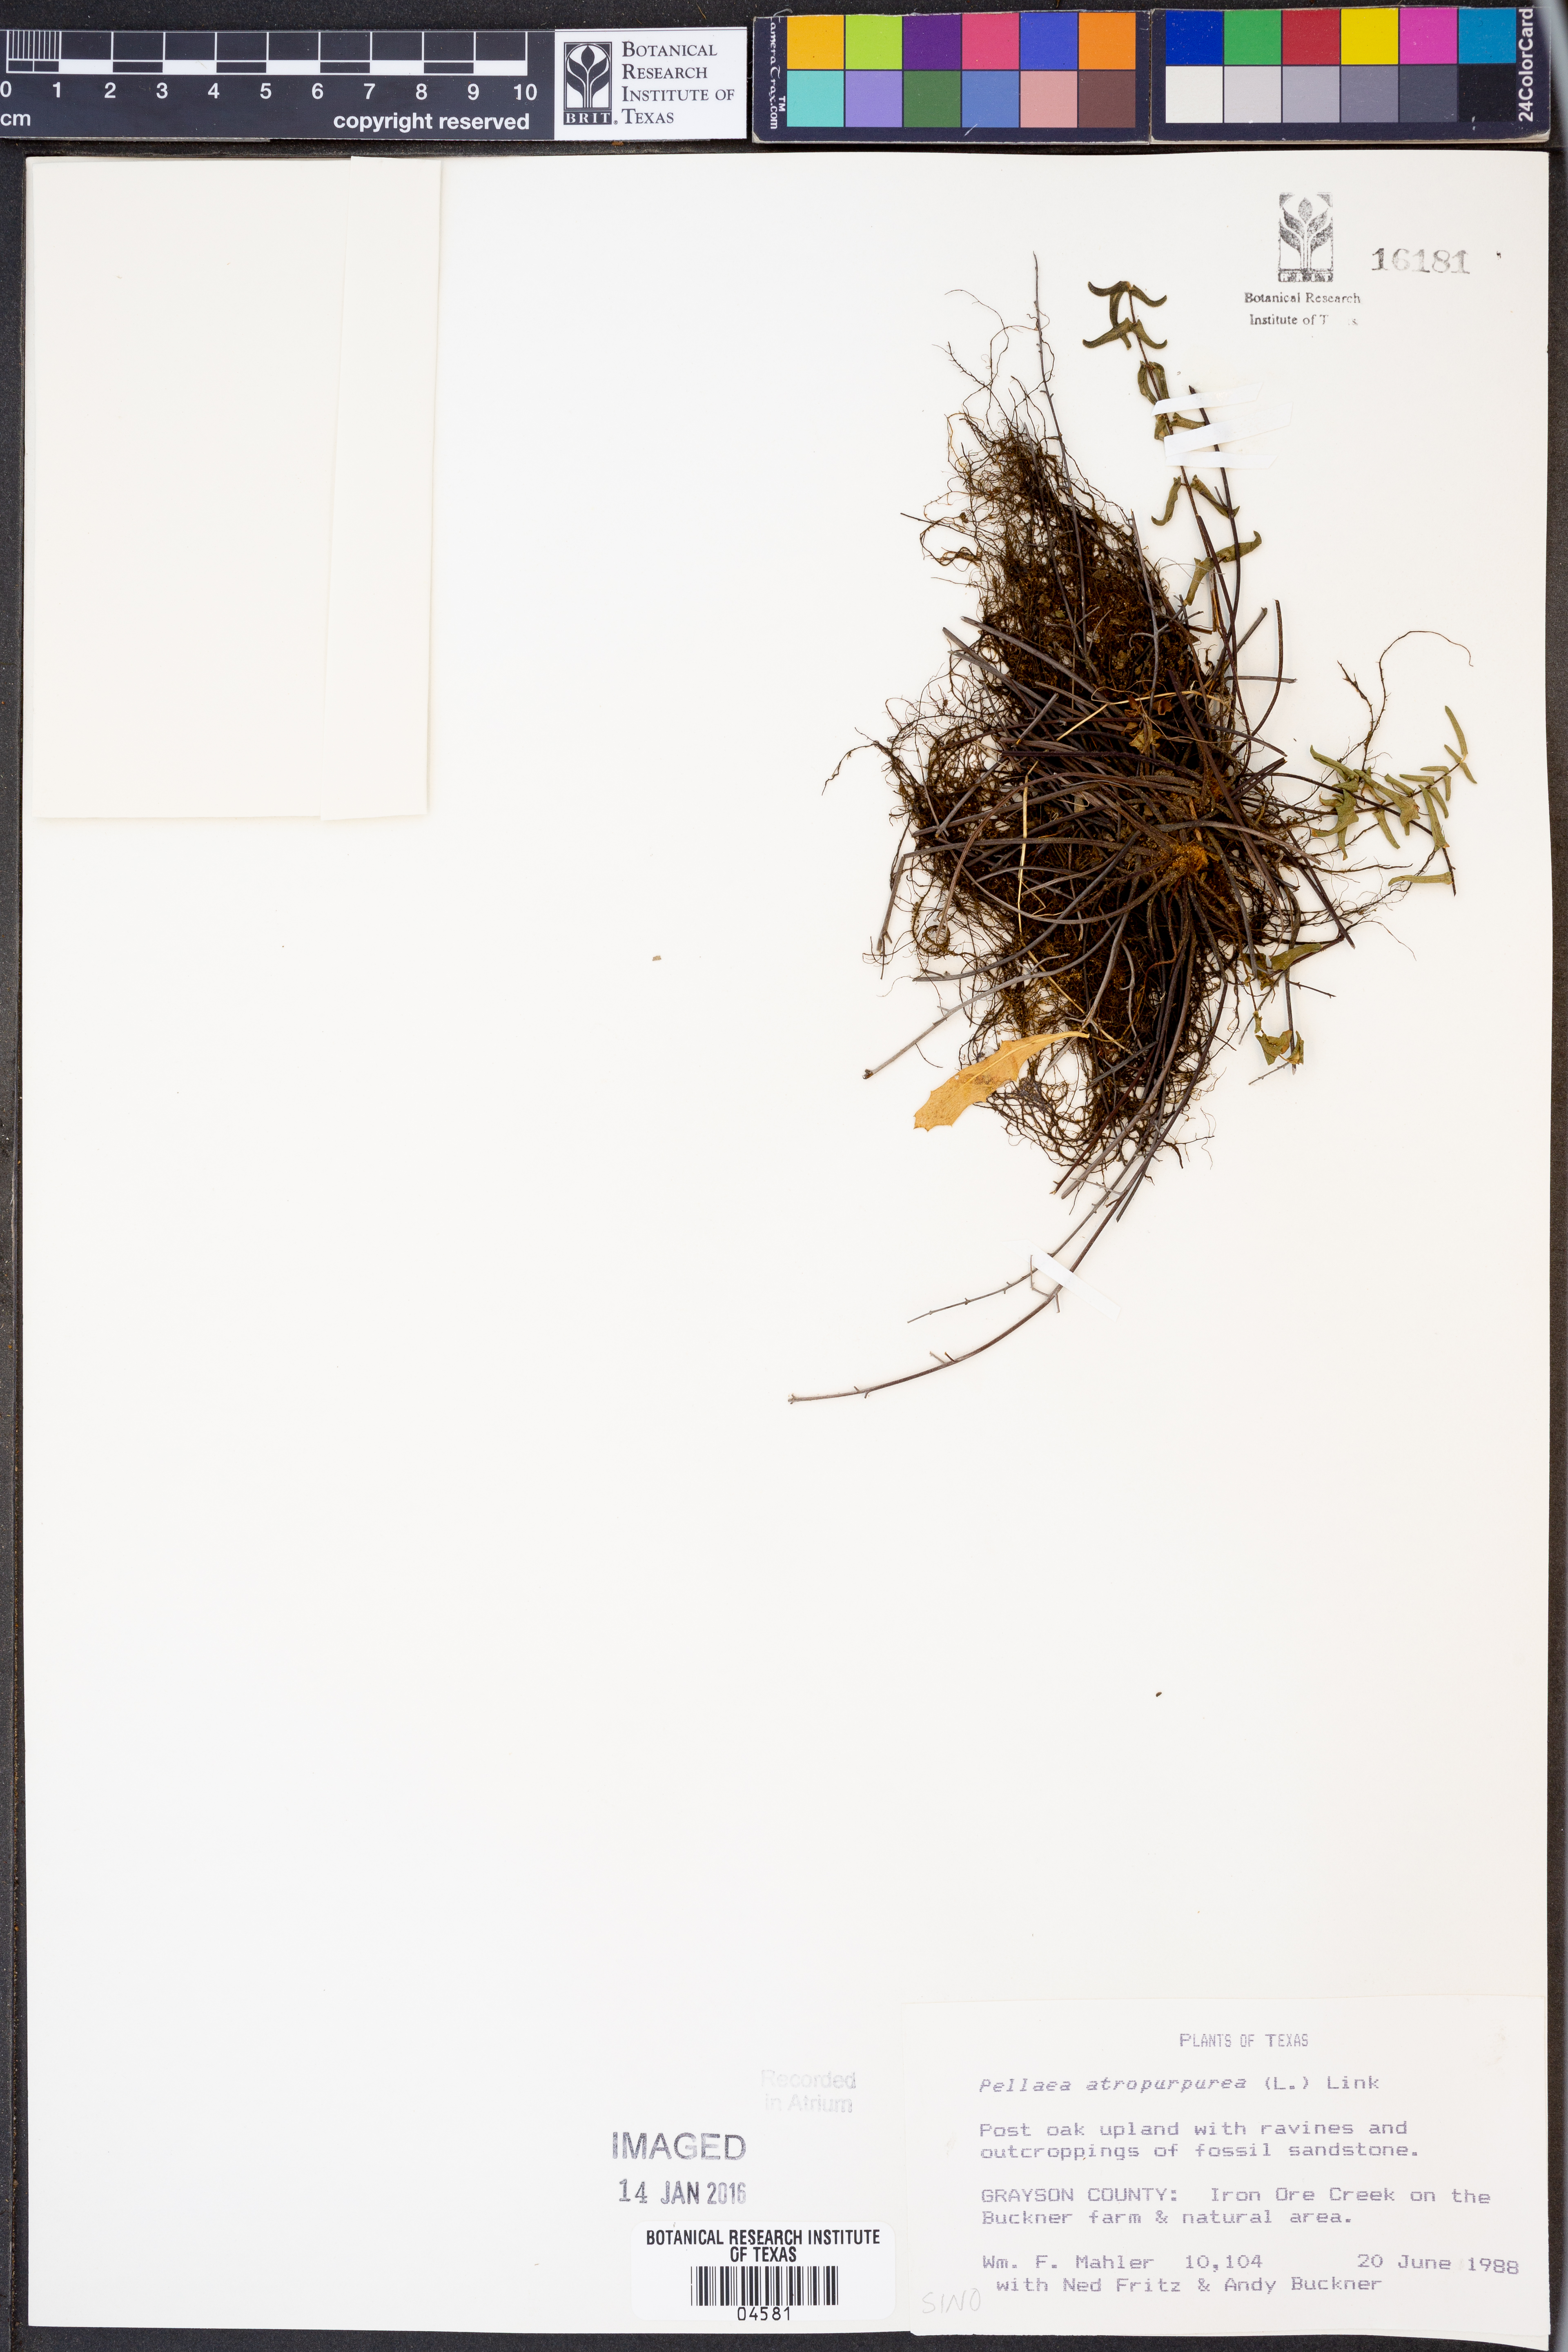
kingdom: Plantae
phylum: Tracheophyta
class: Polypodiopsida
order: Polypodiales
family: Pteridaceae
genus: Pellaea
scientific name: Pellaea atropurpurea
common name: Hairy cliffbrake
